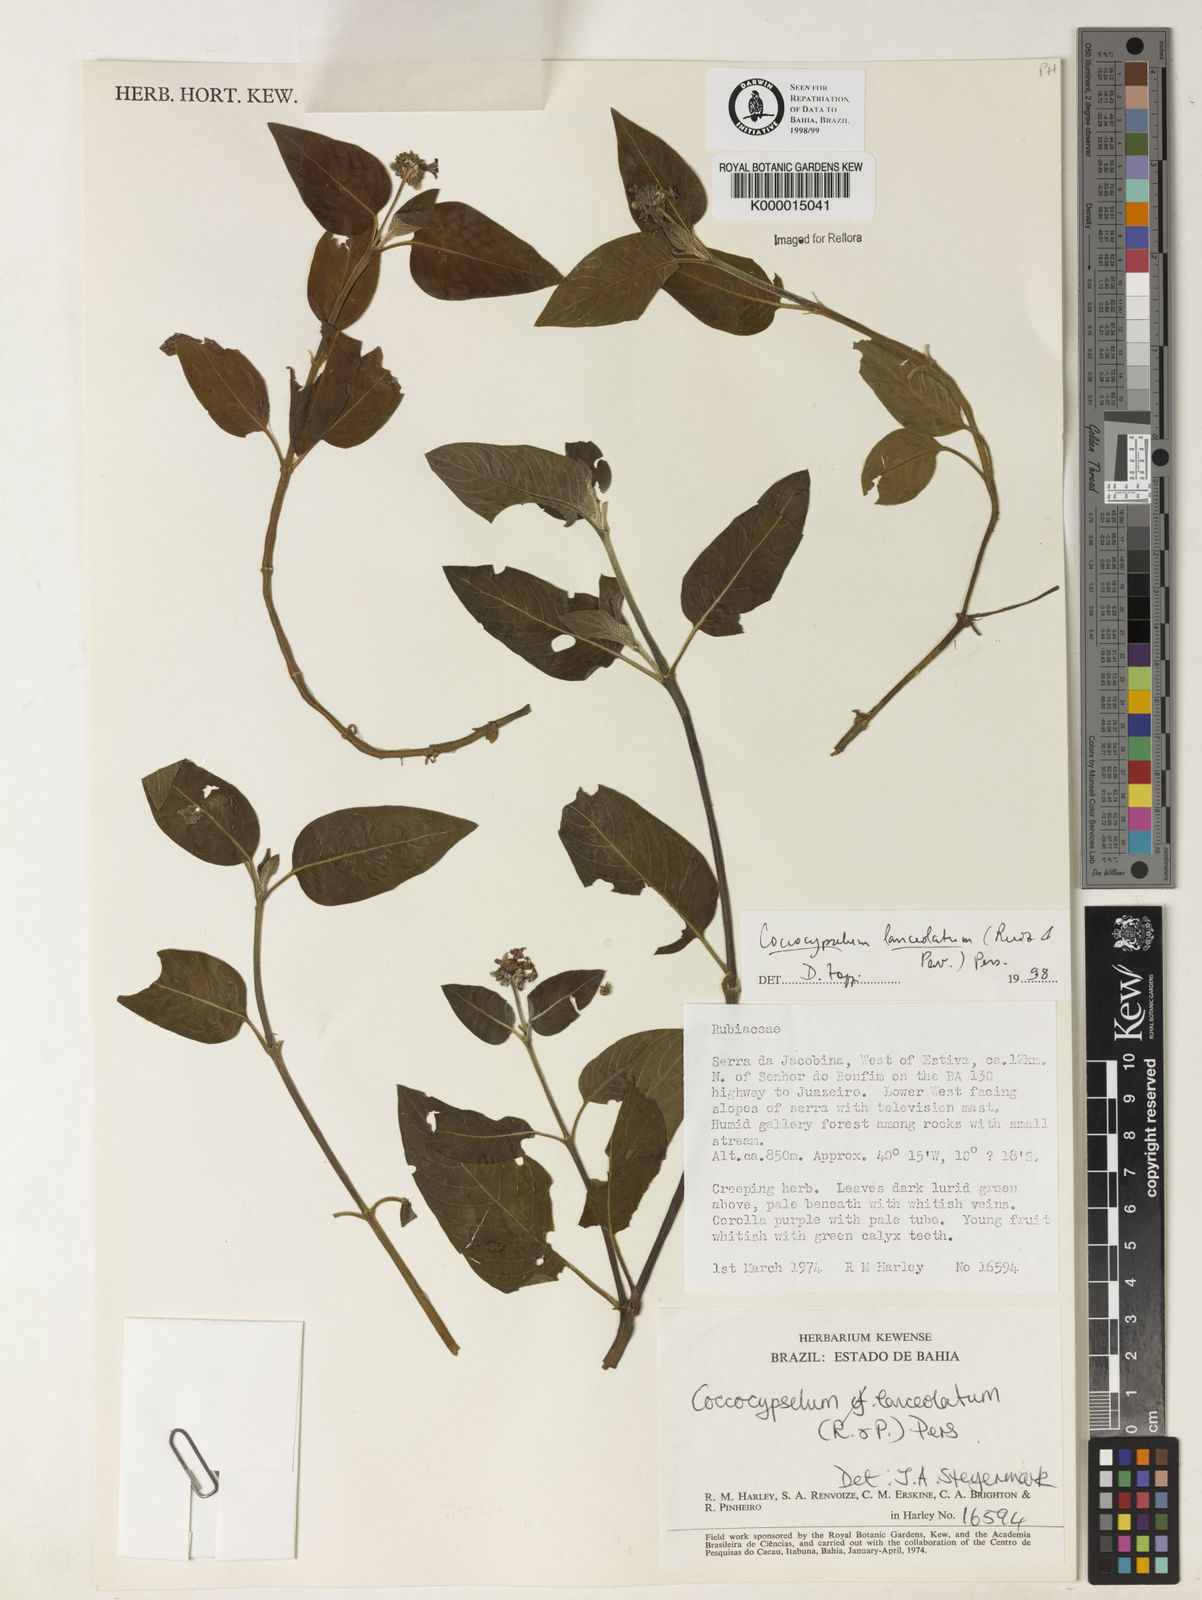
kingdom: Plantae
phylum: Tracheophyta
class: Magnoliopsida
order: Gentianales
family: Rubiaceae
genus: Coccocypselum
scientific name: Coccocypselum lanceolatum
